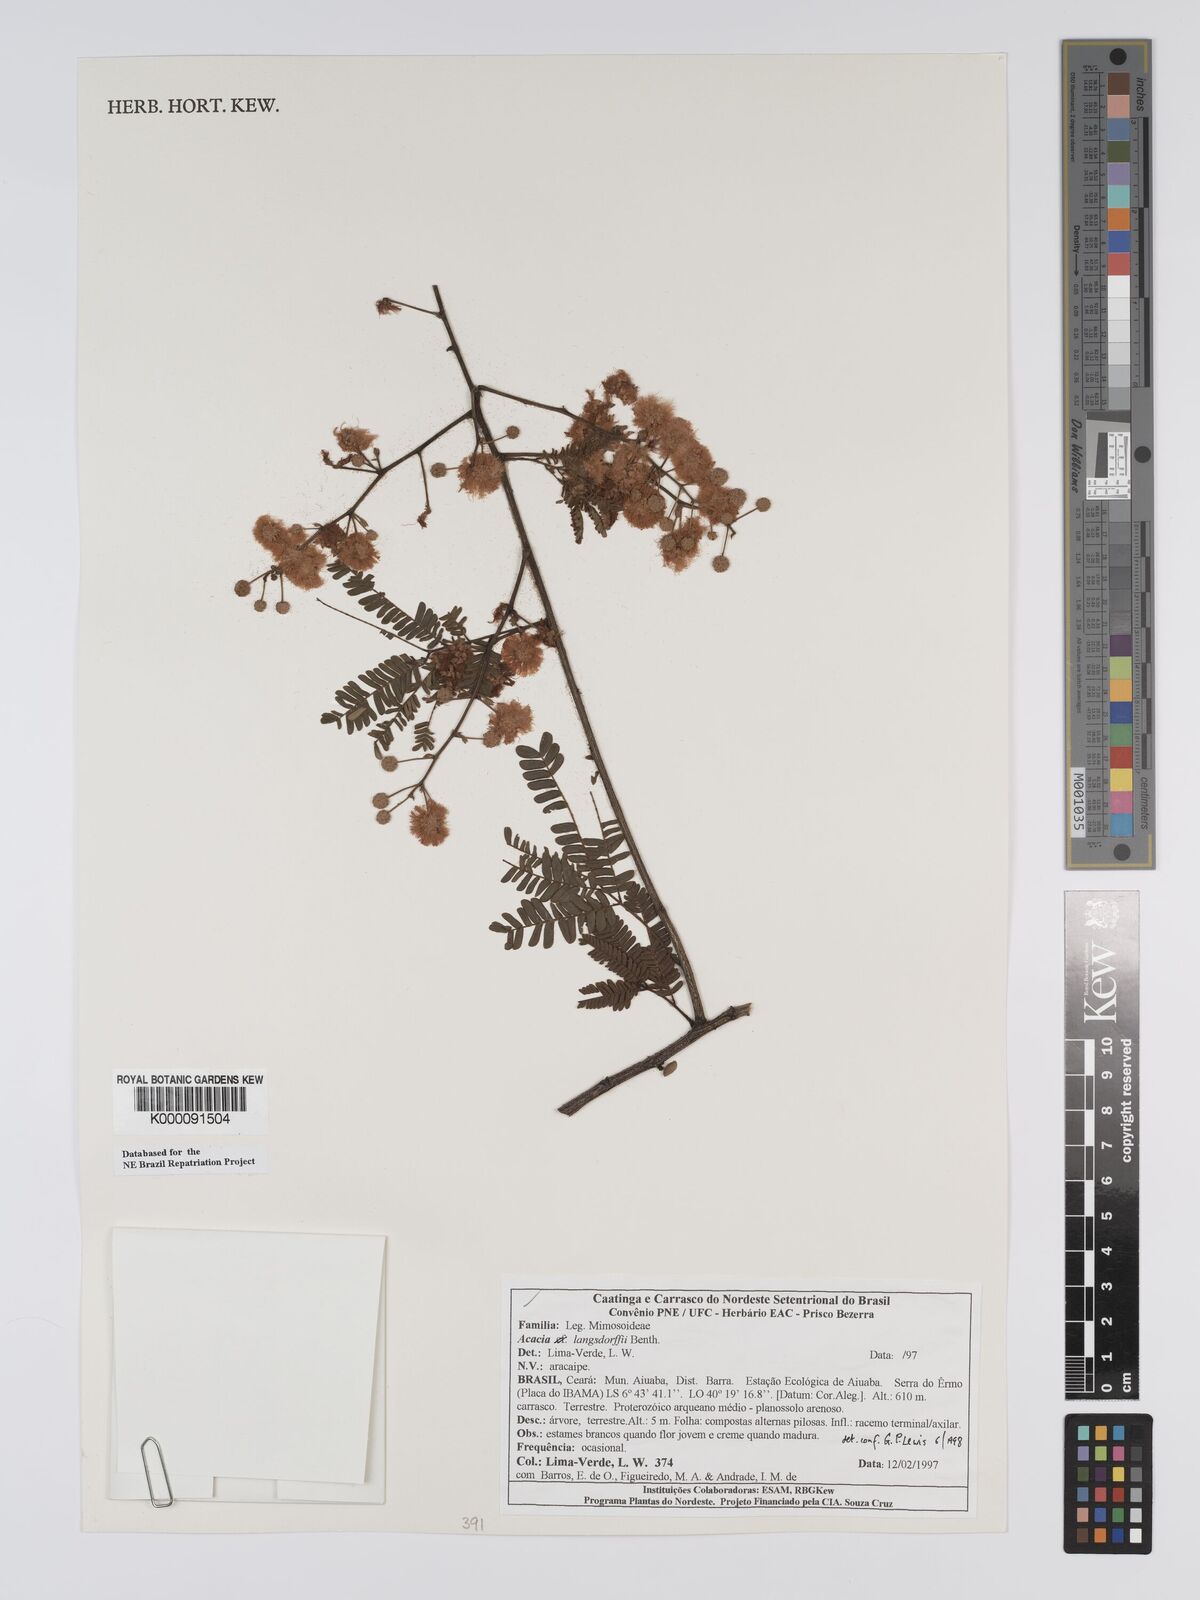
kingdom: Plantae
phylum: Tracheophyta
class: Magnoliopsida
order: Fabales
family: Fabaceae
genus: Senegalia
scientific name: Senegalia langsdorffii
